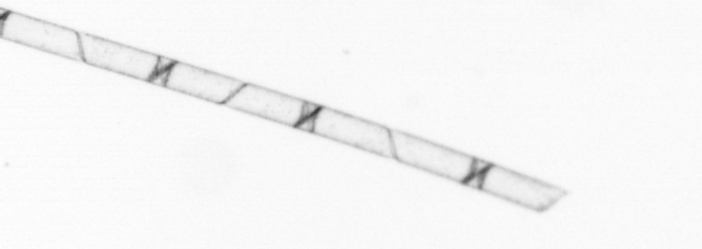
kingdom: Chromista
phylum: Ochrophyta
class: Bacillariophyceae
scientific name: Bacillariophyceae
